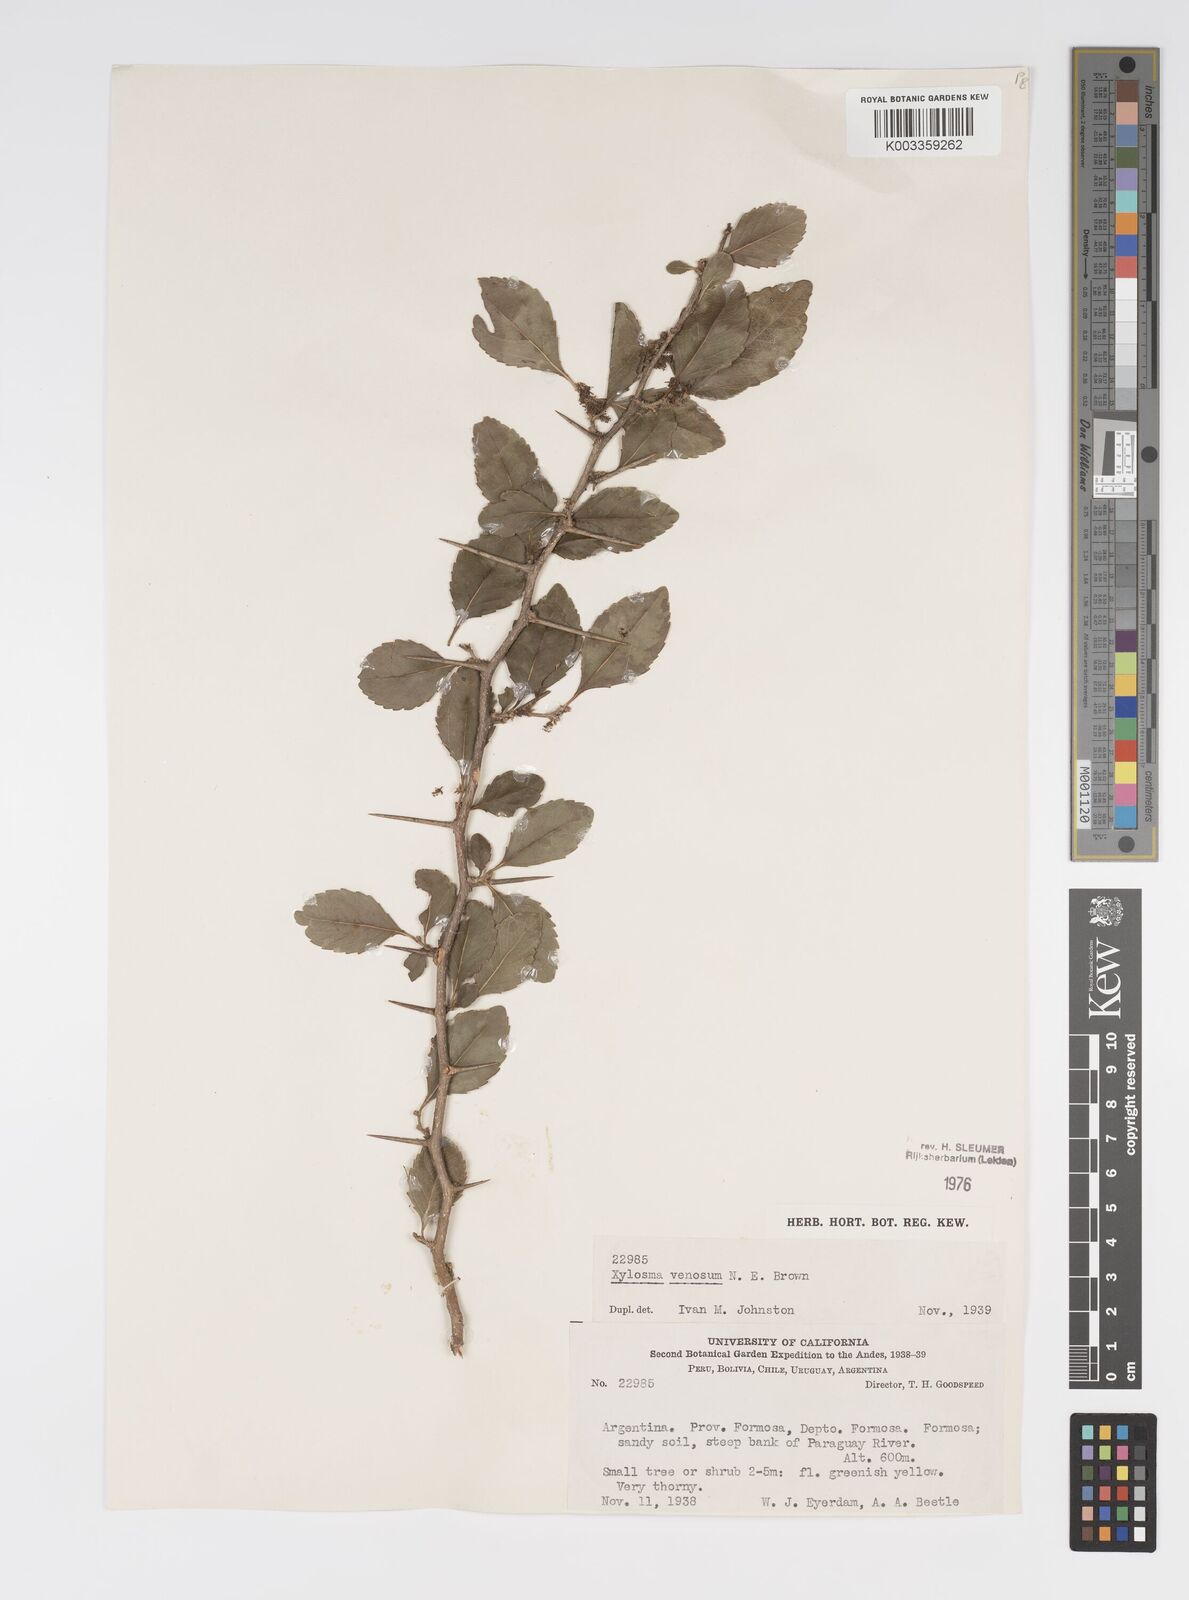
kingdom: Plantae
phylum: Tracheophyta
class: Magnoliopsida
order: Malpighiales
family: Salicaceae
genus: Xylosma
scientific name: Xylosma venosa
